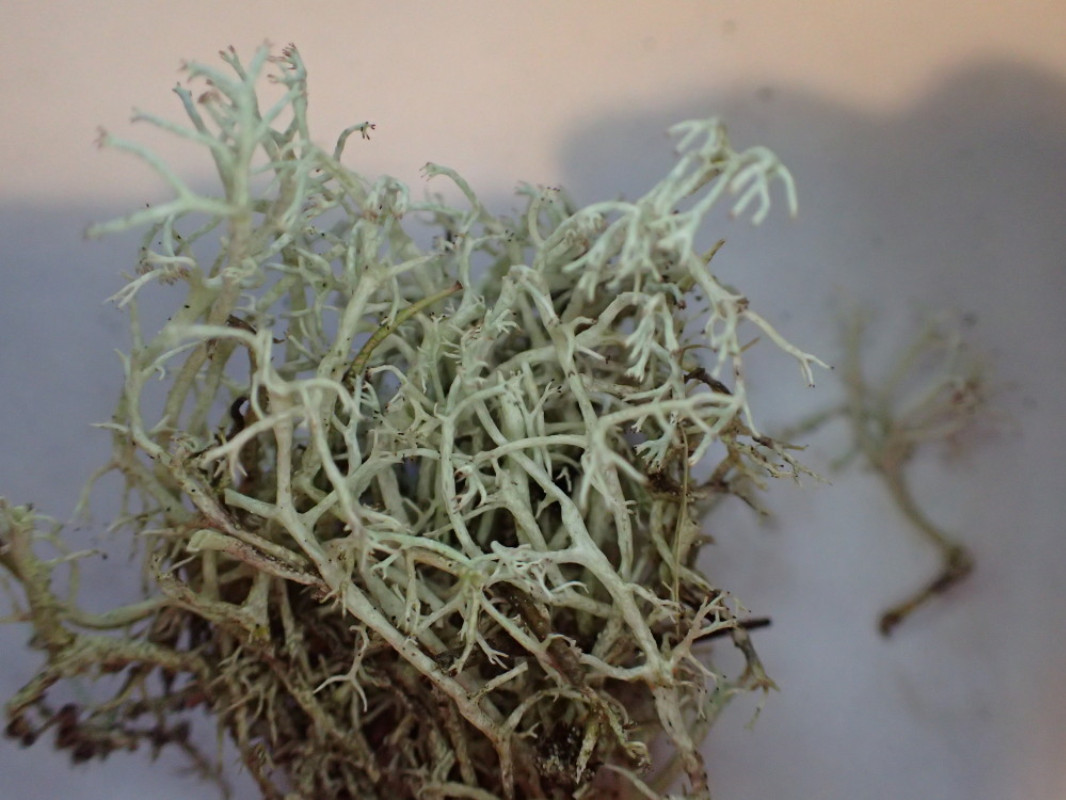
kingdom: Fungi
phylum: Ascomycota
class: Lecanoromycetes
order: Lecanorales
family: Cladoniaceae
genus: Cladonia
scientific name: Cladonia arbuscula
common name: gulhvid rensdyrlav
